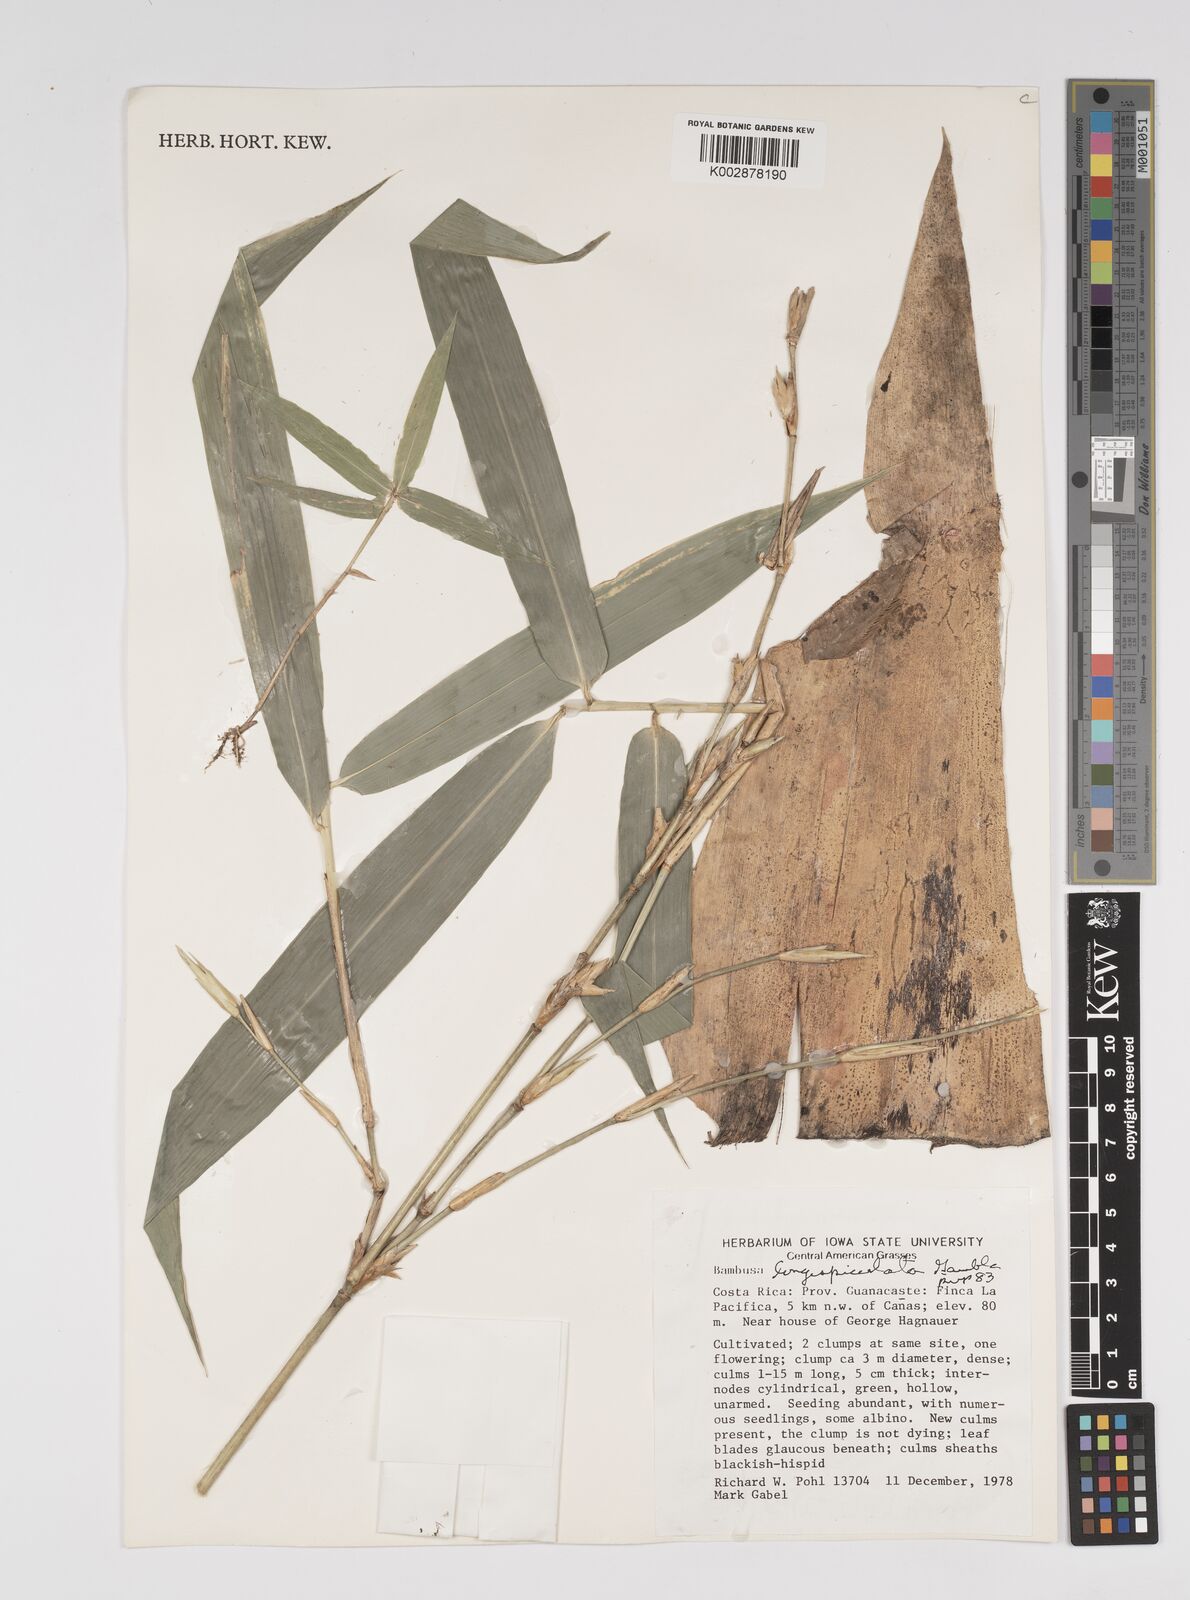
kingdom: Plantae
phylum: Tracheophyta
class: Liliopsida
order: Poales
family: Poaceae
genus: Bambusa
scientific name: Bambusa
